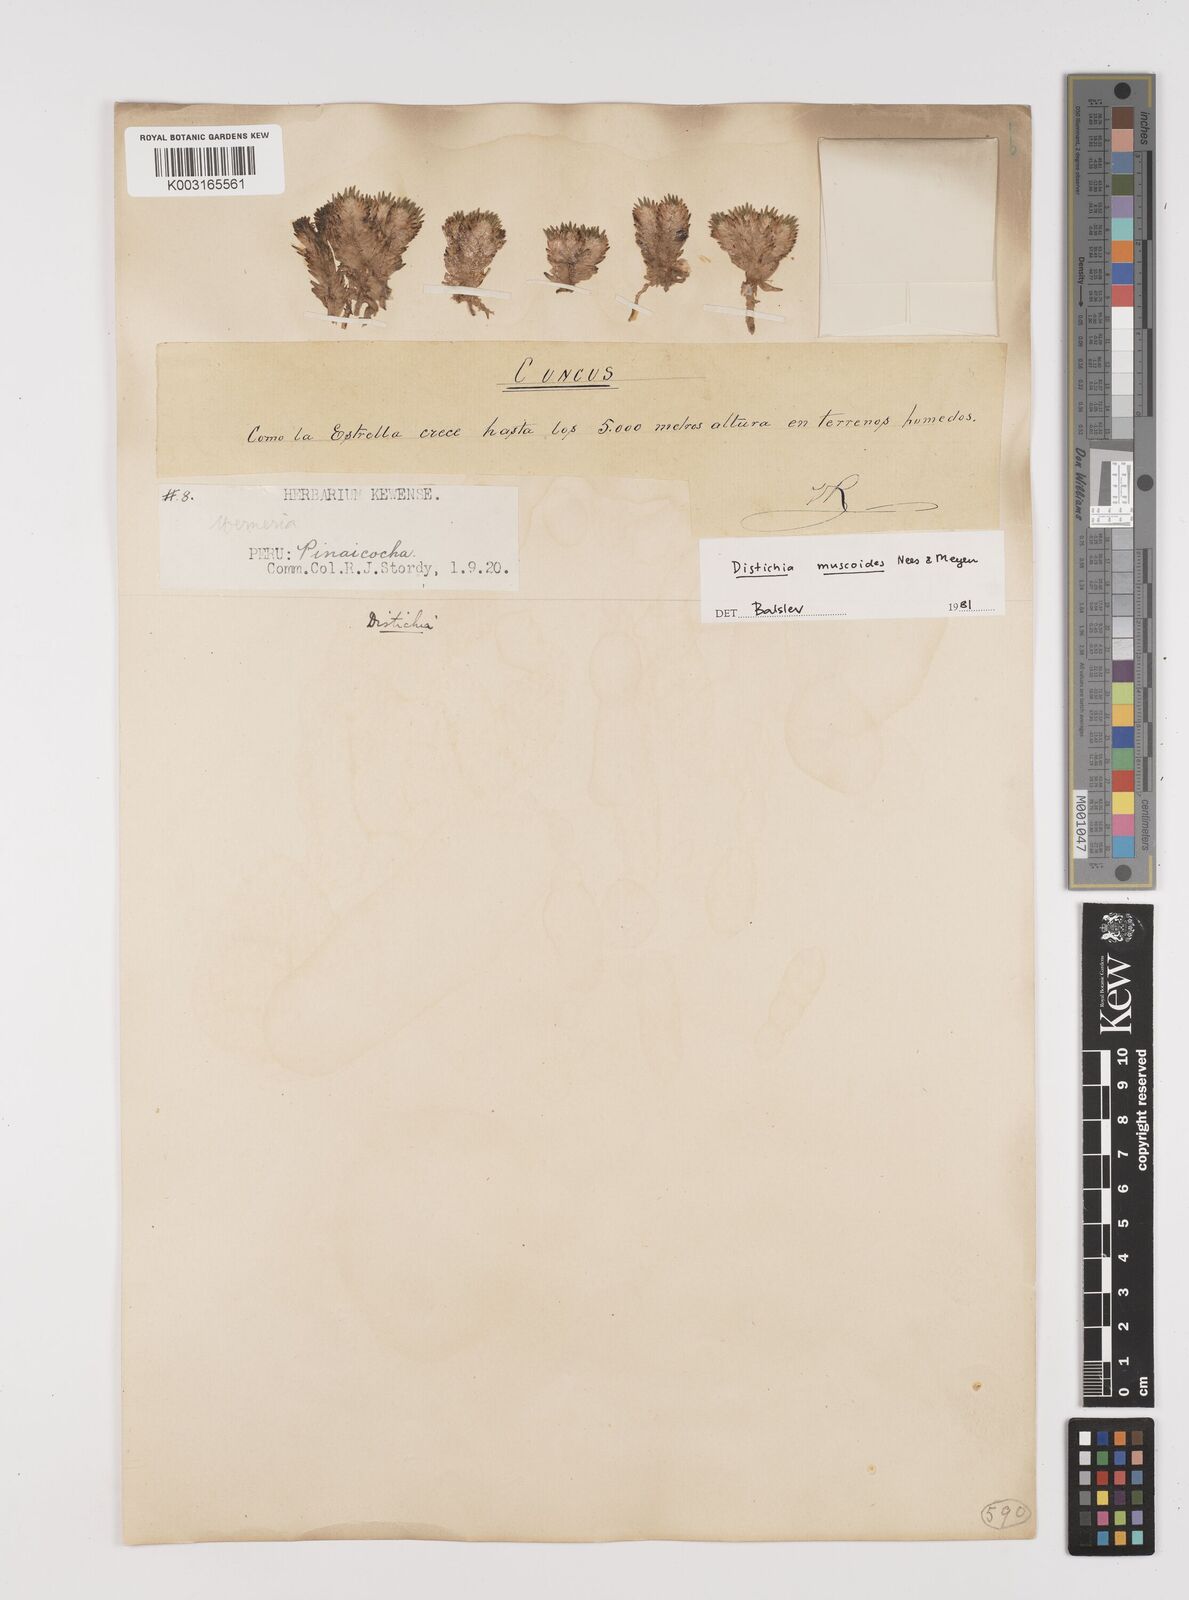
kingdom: Plantae
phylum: Tracheophyta
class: Liliopsida
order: Poales
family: Juncaceae
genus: Distichia
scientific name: Distichia muscoides
